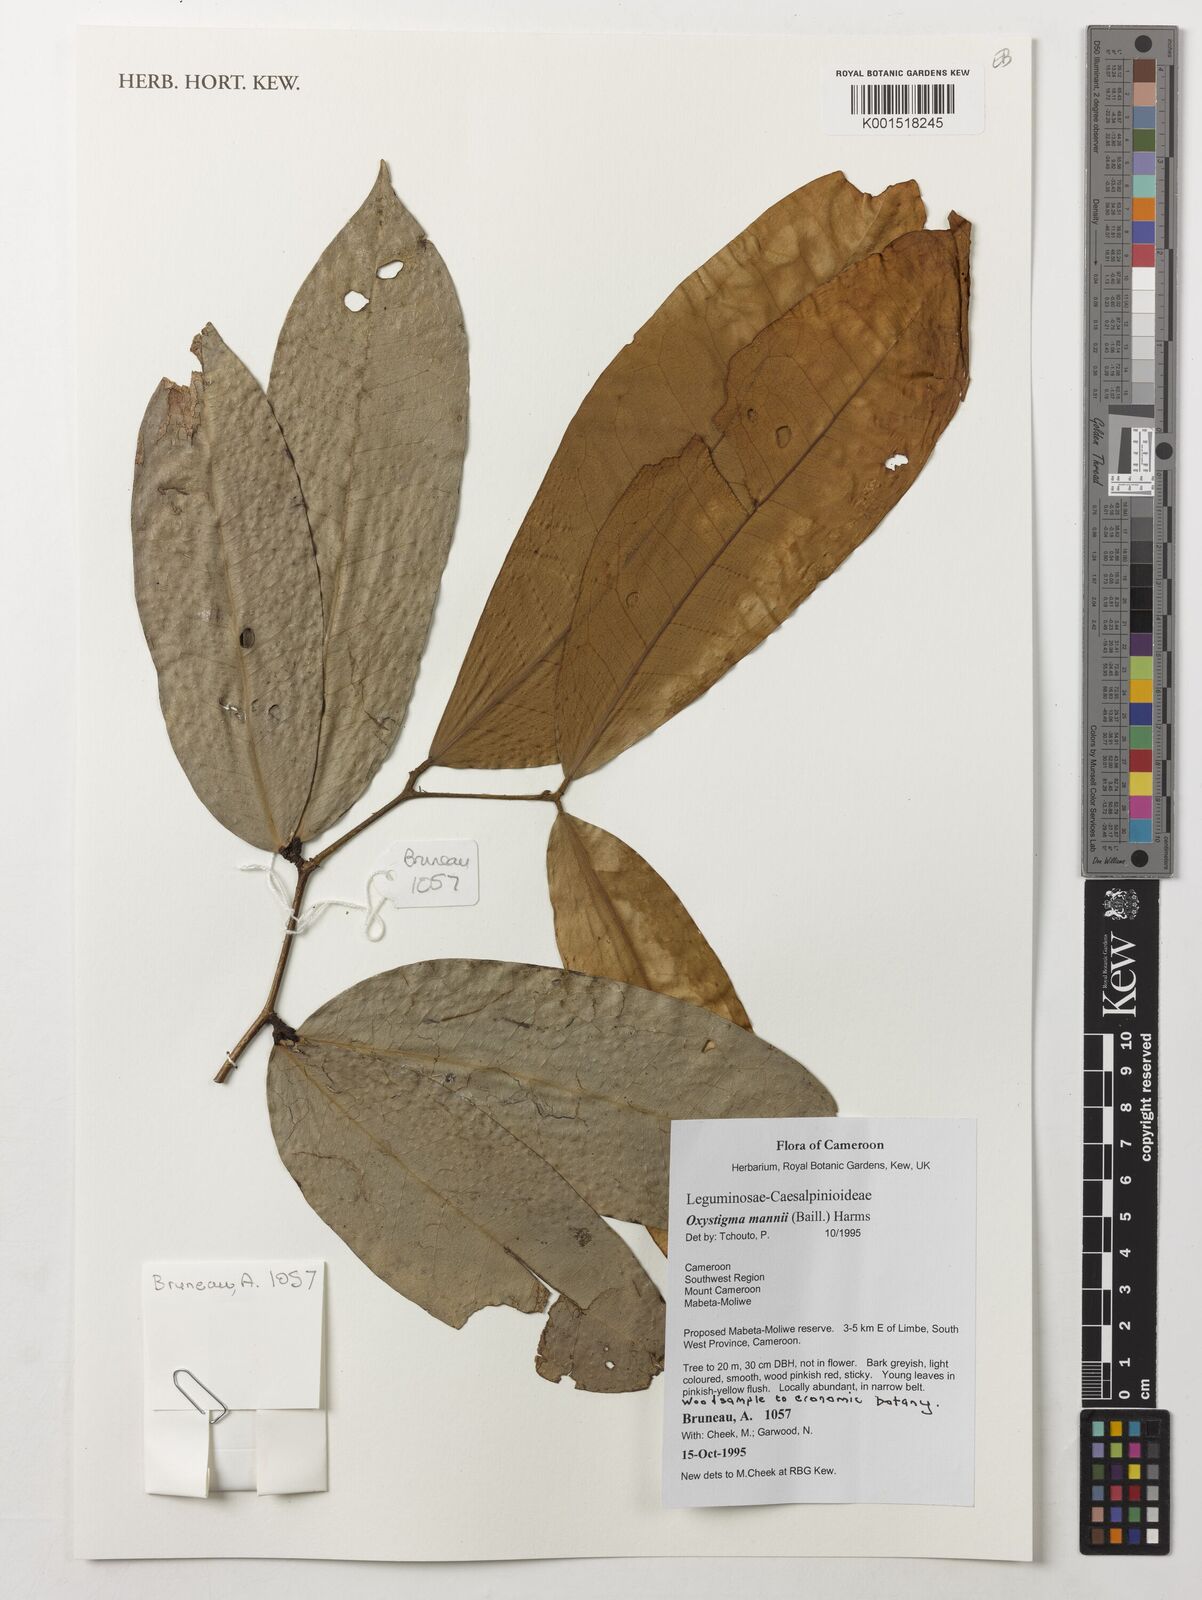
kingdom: Plantae
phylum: Tracheophyta
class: Magnoliopsida
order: Fabales
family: Fabaceae
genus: Prioria
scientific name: Prioria mannii
